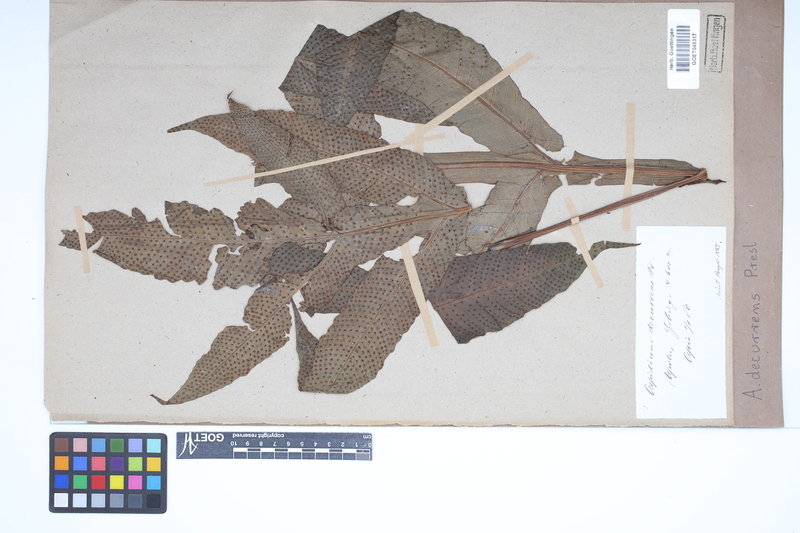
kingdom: Plantae
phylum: Tracheophyta
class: Polypodiopsida
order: Polypodiales
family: Tectariaceae
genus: Tectaria
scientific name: Tectaria decurrens
